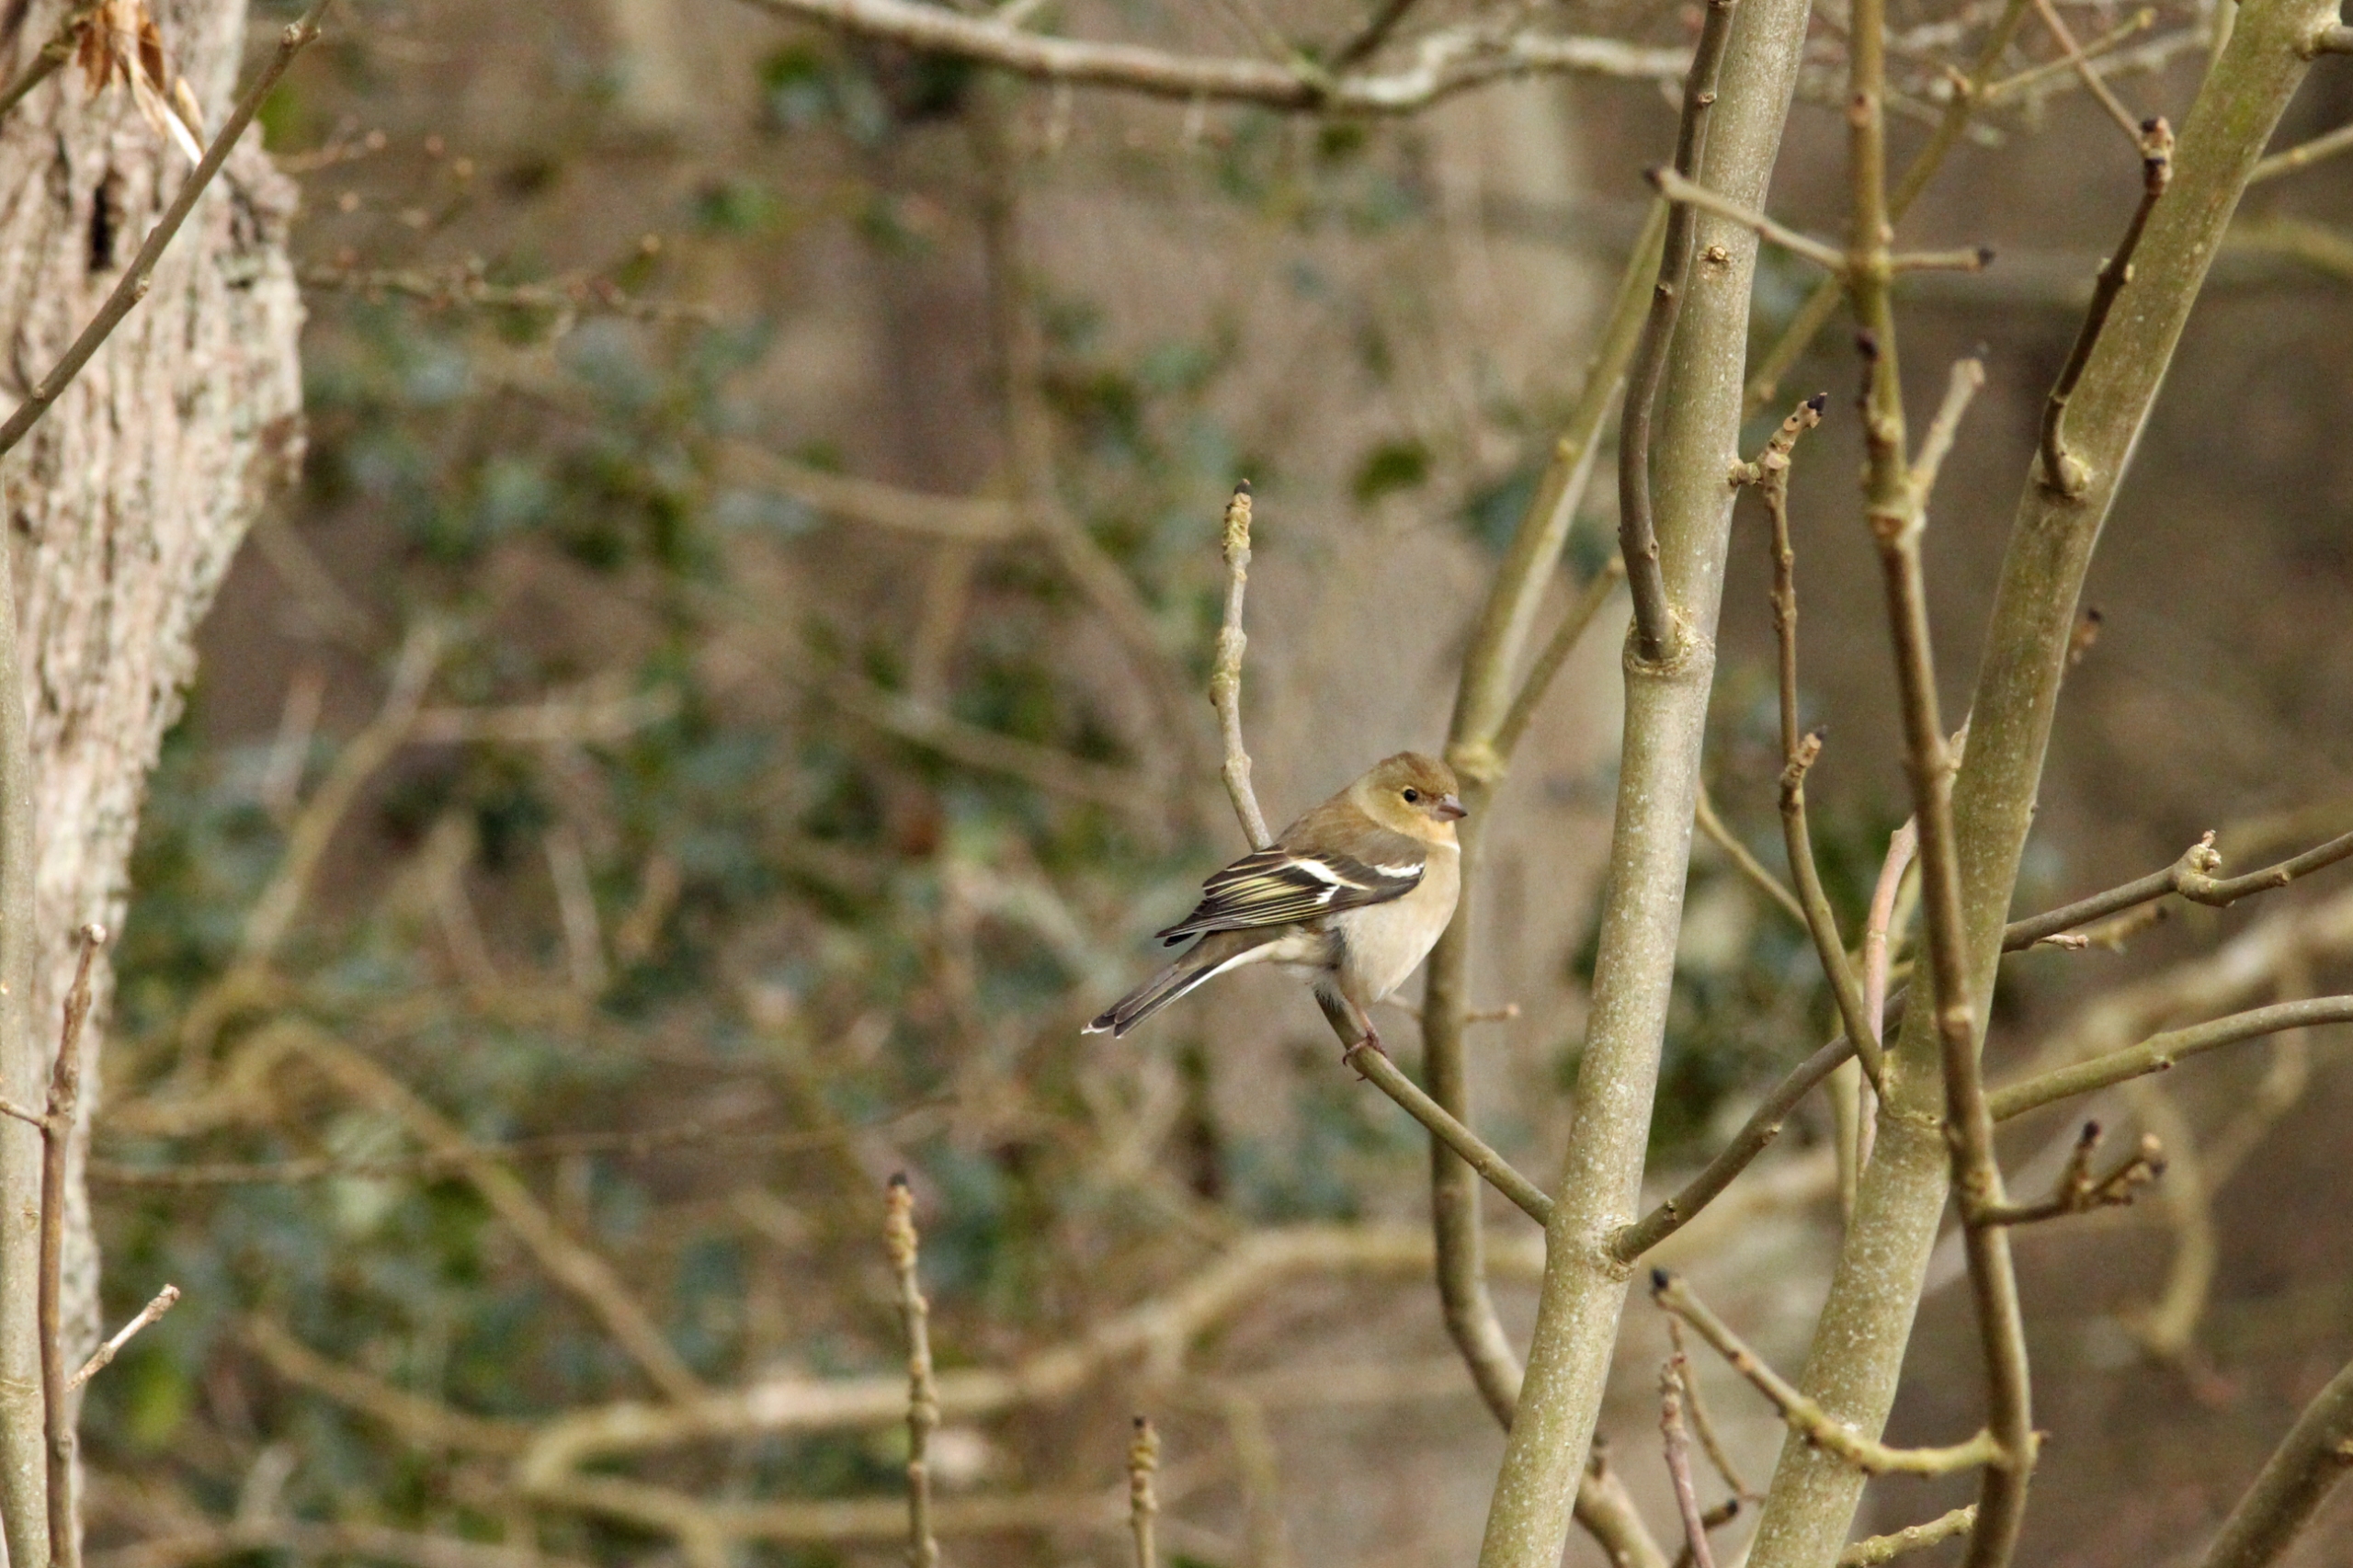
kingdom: Animalia
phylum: Chordata
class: Aves
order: Passeriformes
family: Fringillidae
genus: Fringilla
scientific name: Fringilla coelebs
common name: Bogfinke
